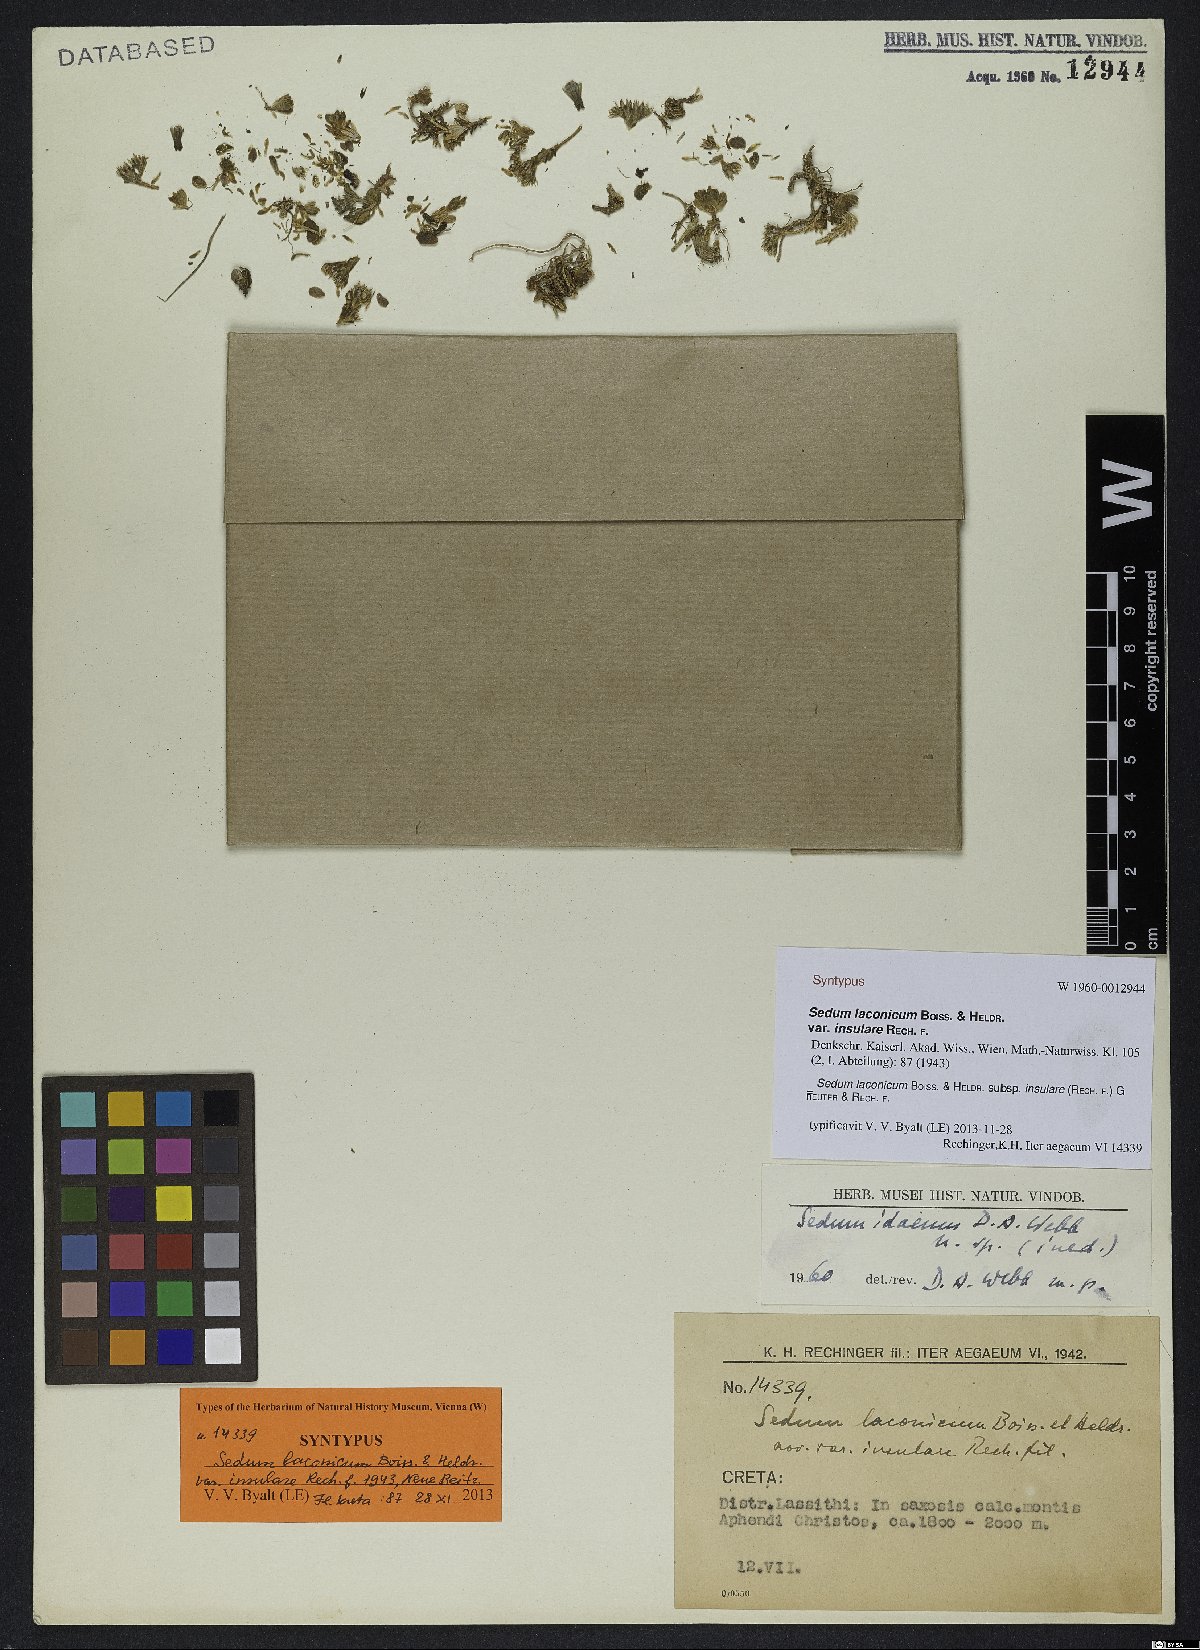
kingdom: Plantae
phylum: Tracheophyta
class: Magnoliopsida
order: Saxifragales
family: Crassulaceae
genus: Sedum
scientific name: Sedum laconicum
